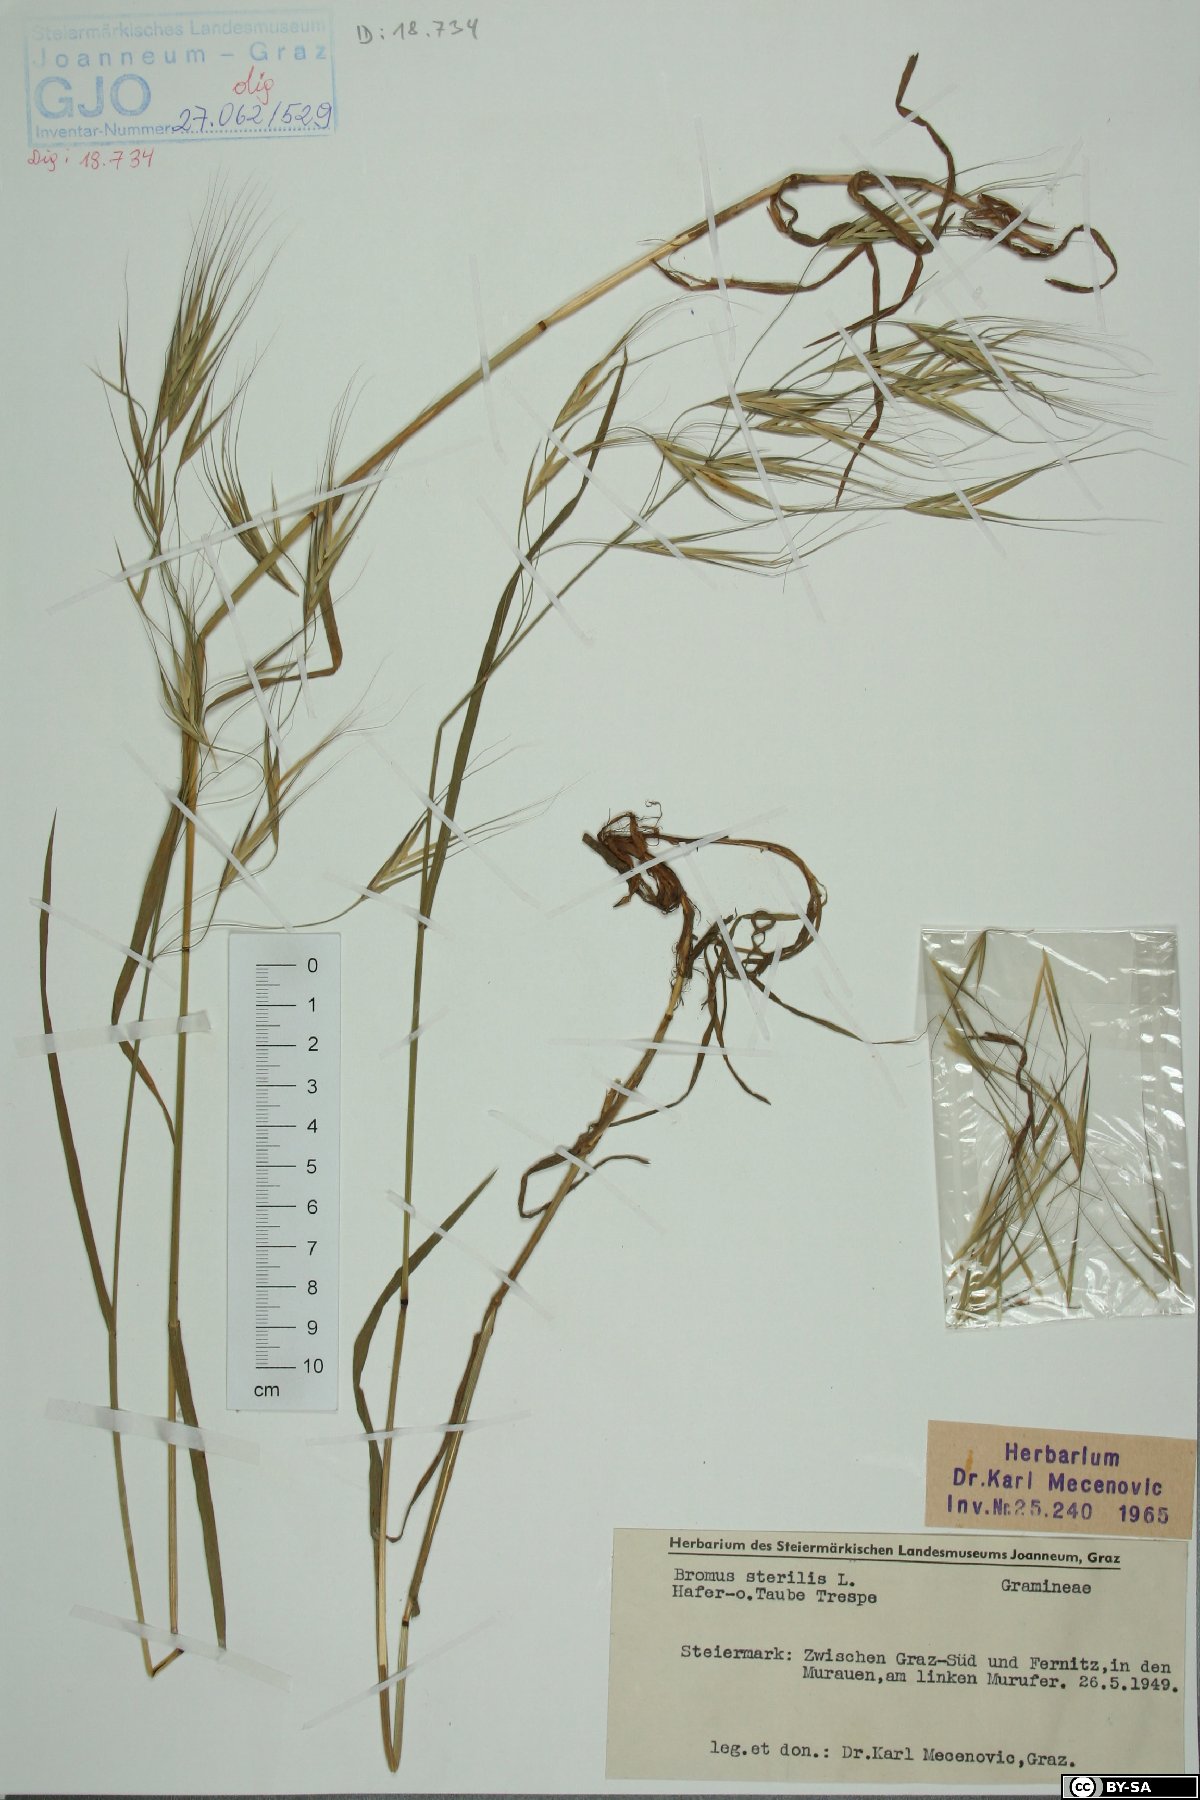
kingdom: Plantae
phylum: Tracheophyta
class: Liliopsida
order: Poales
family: Poaceae
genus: Bromus
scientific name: Bromus sterilis
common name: Poverty brome
